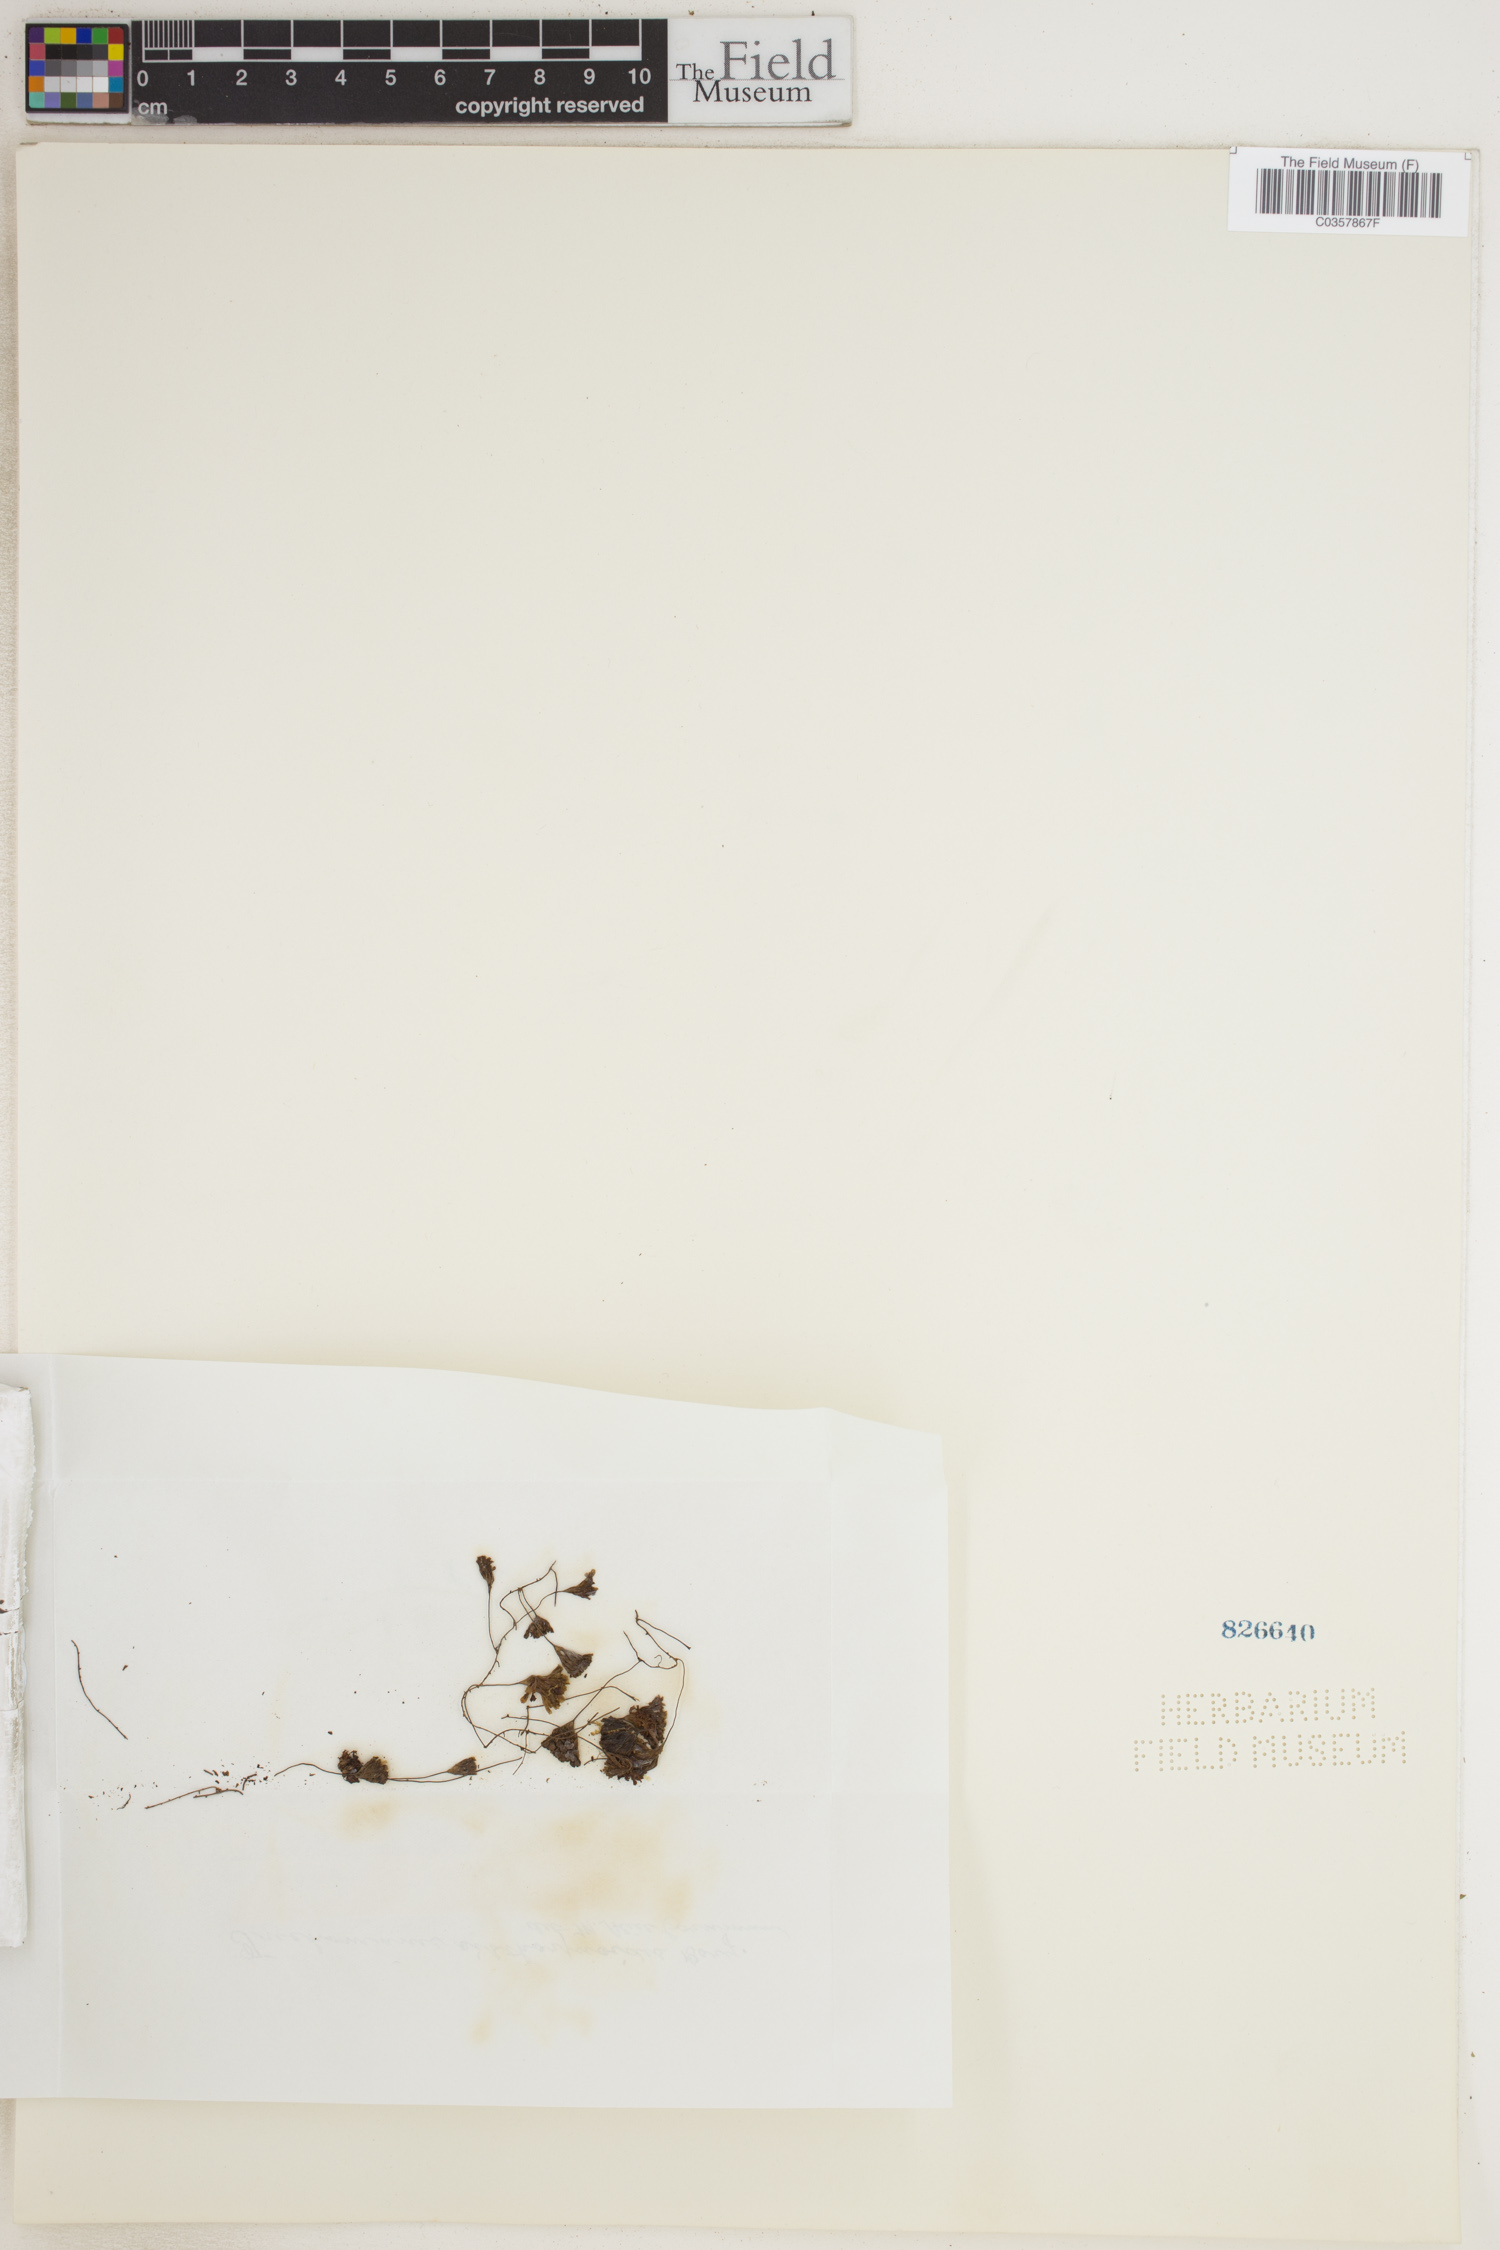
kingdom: Plantae
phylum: Tracheophyta
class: Polypodiopsida
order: Hymenophyllales
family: Hymenophyllaceae
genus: Hymenophyllum
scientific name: Hymenophyllum sibthorpioides
